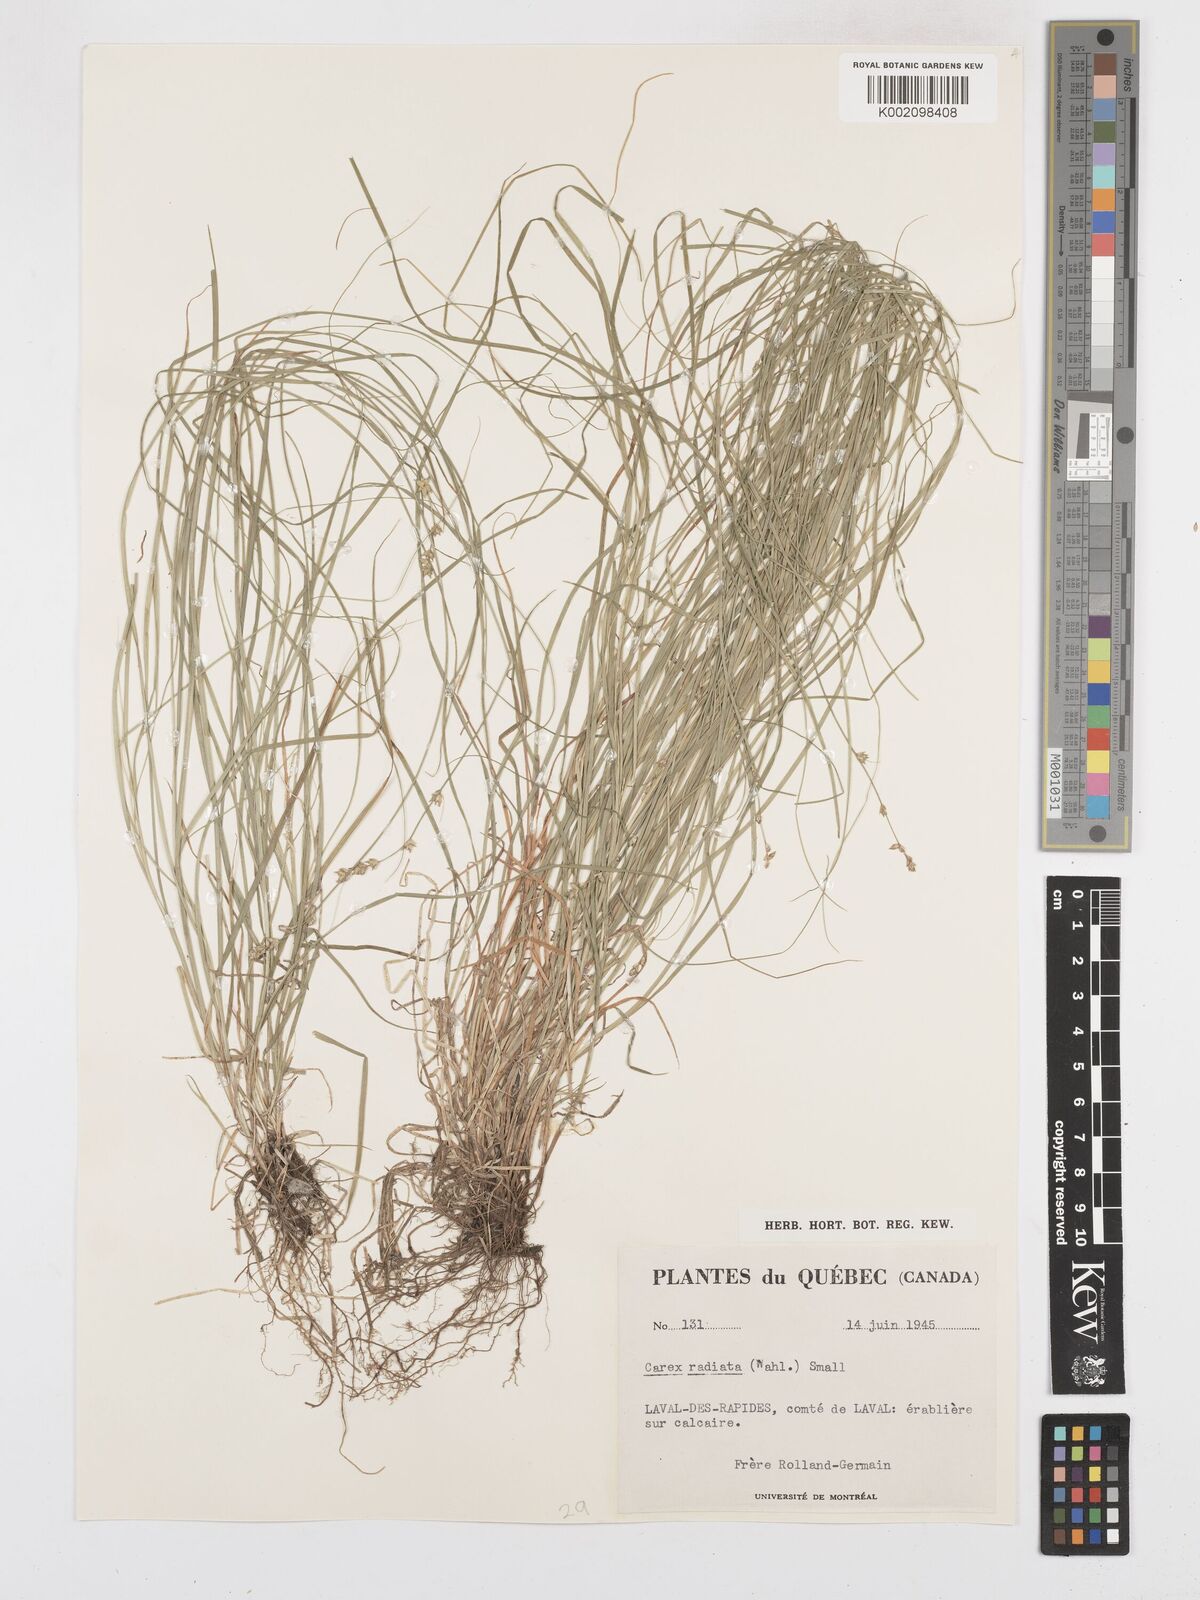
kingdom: Plantae
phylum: Tracheophyta
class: Liliopsida
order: Poales
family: Cyperaceae
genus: Carex
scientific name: Carex
